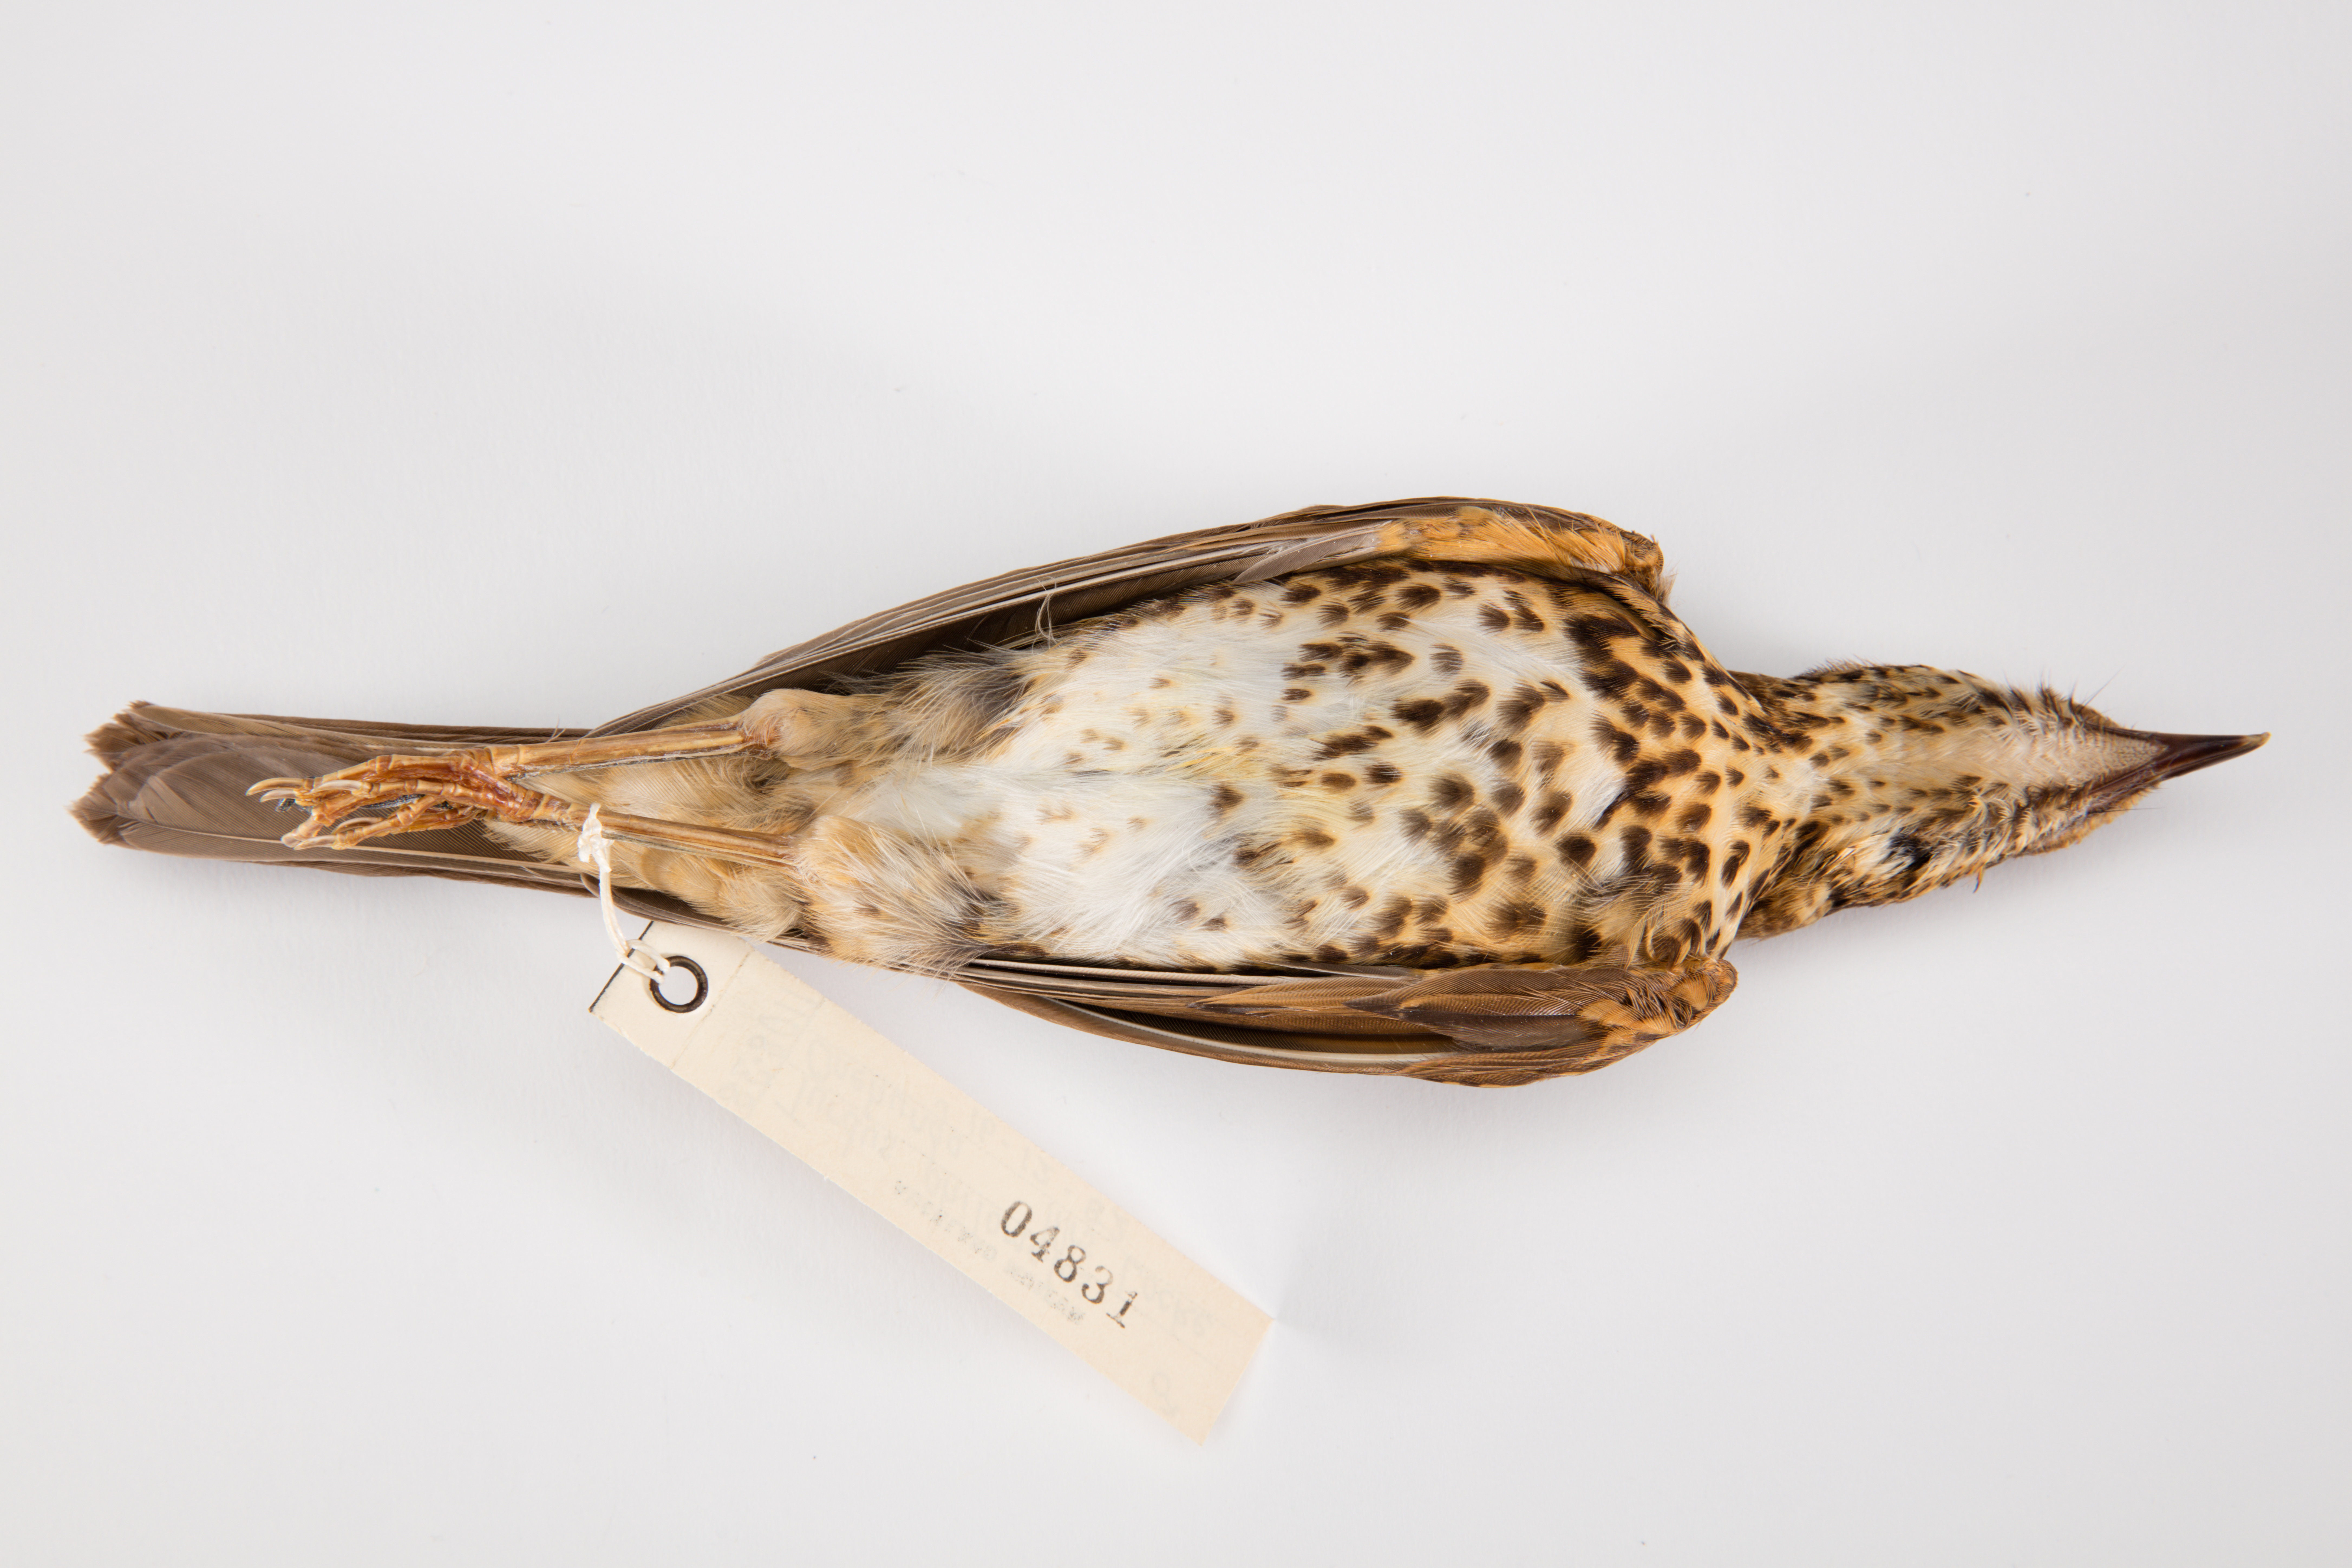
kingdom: Animalia
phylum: Chordata
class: Aves
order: Passeriformes
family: Turdidae
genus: Turdus
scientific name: Turdus philomelos
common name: Song thrush
